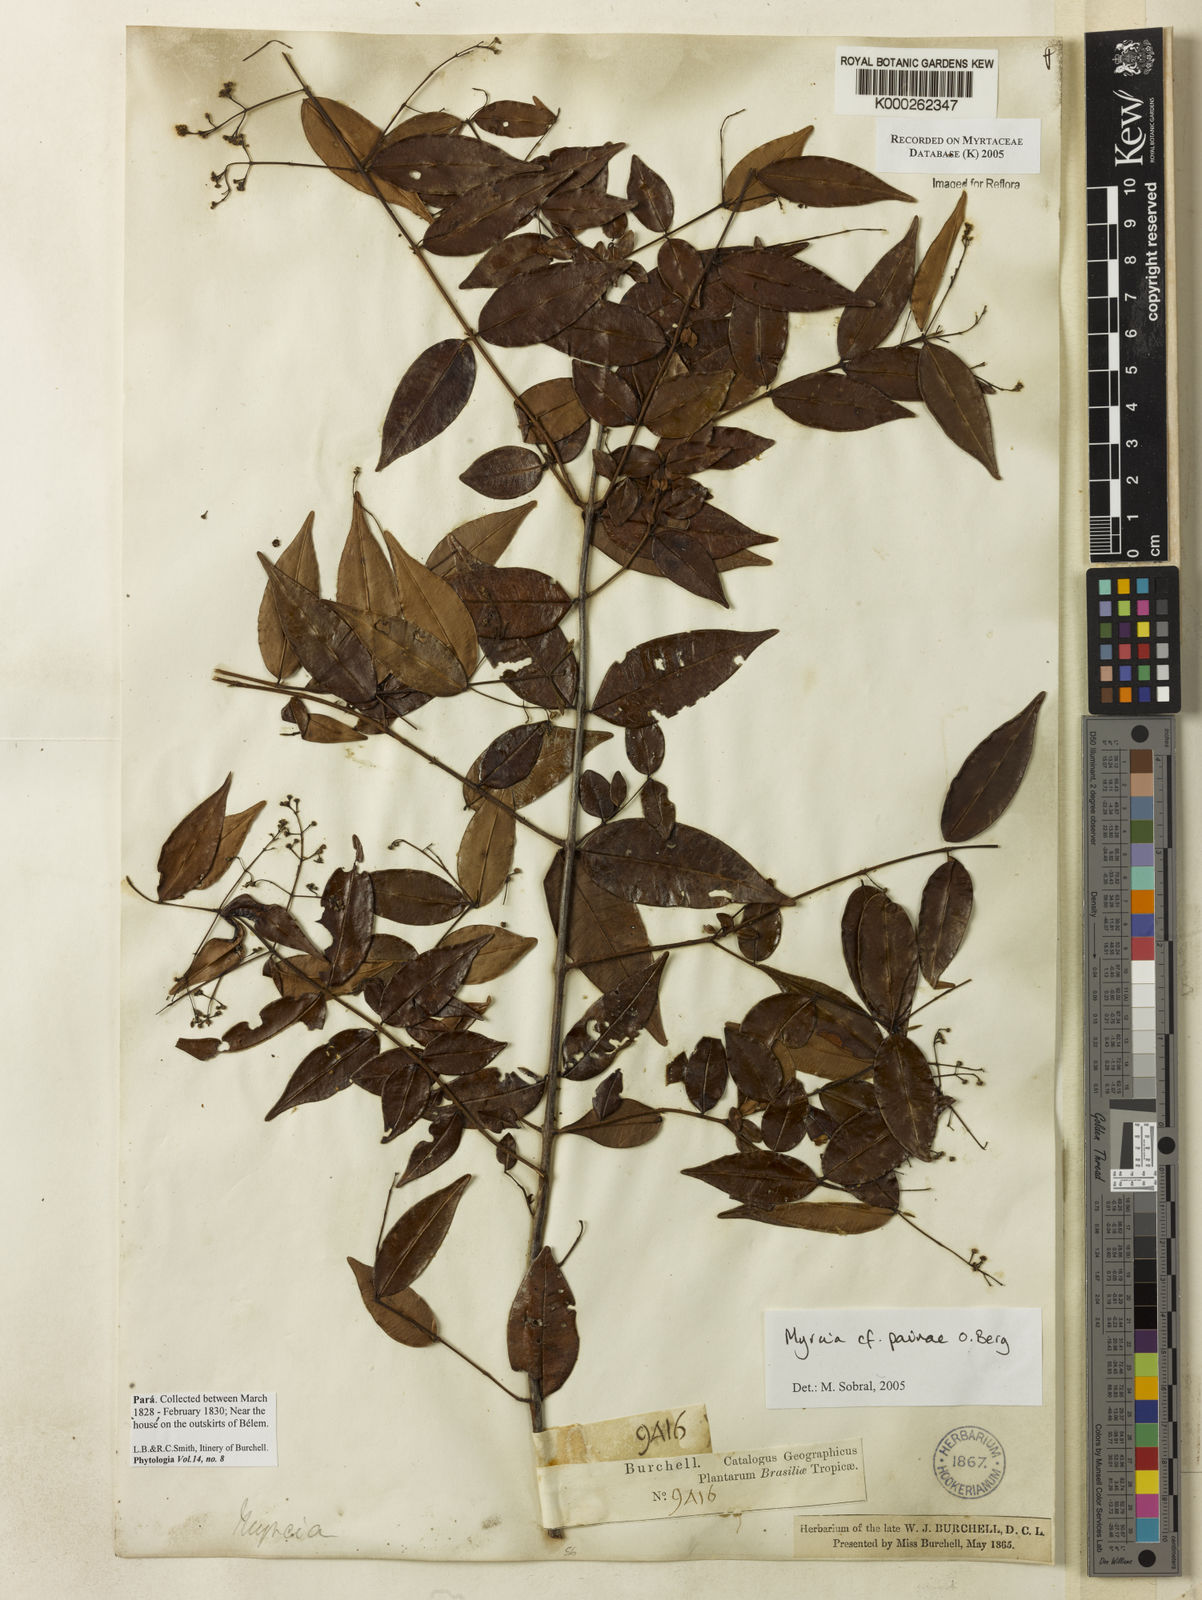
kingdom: Plantae
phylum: Tracheophyta
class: Magnoliopsida
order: Myrtales
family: Myrtaceae
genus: Myrcia
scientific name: Myrcia paivae
